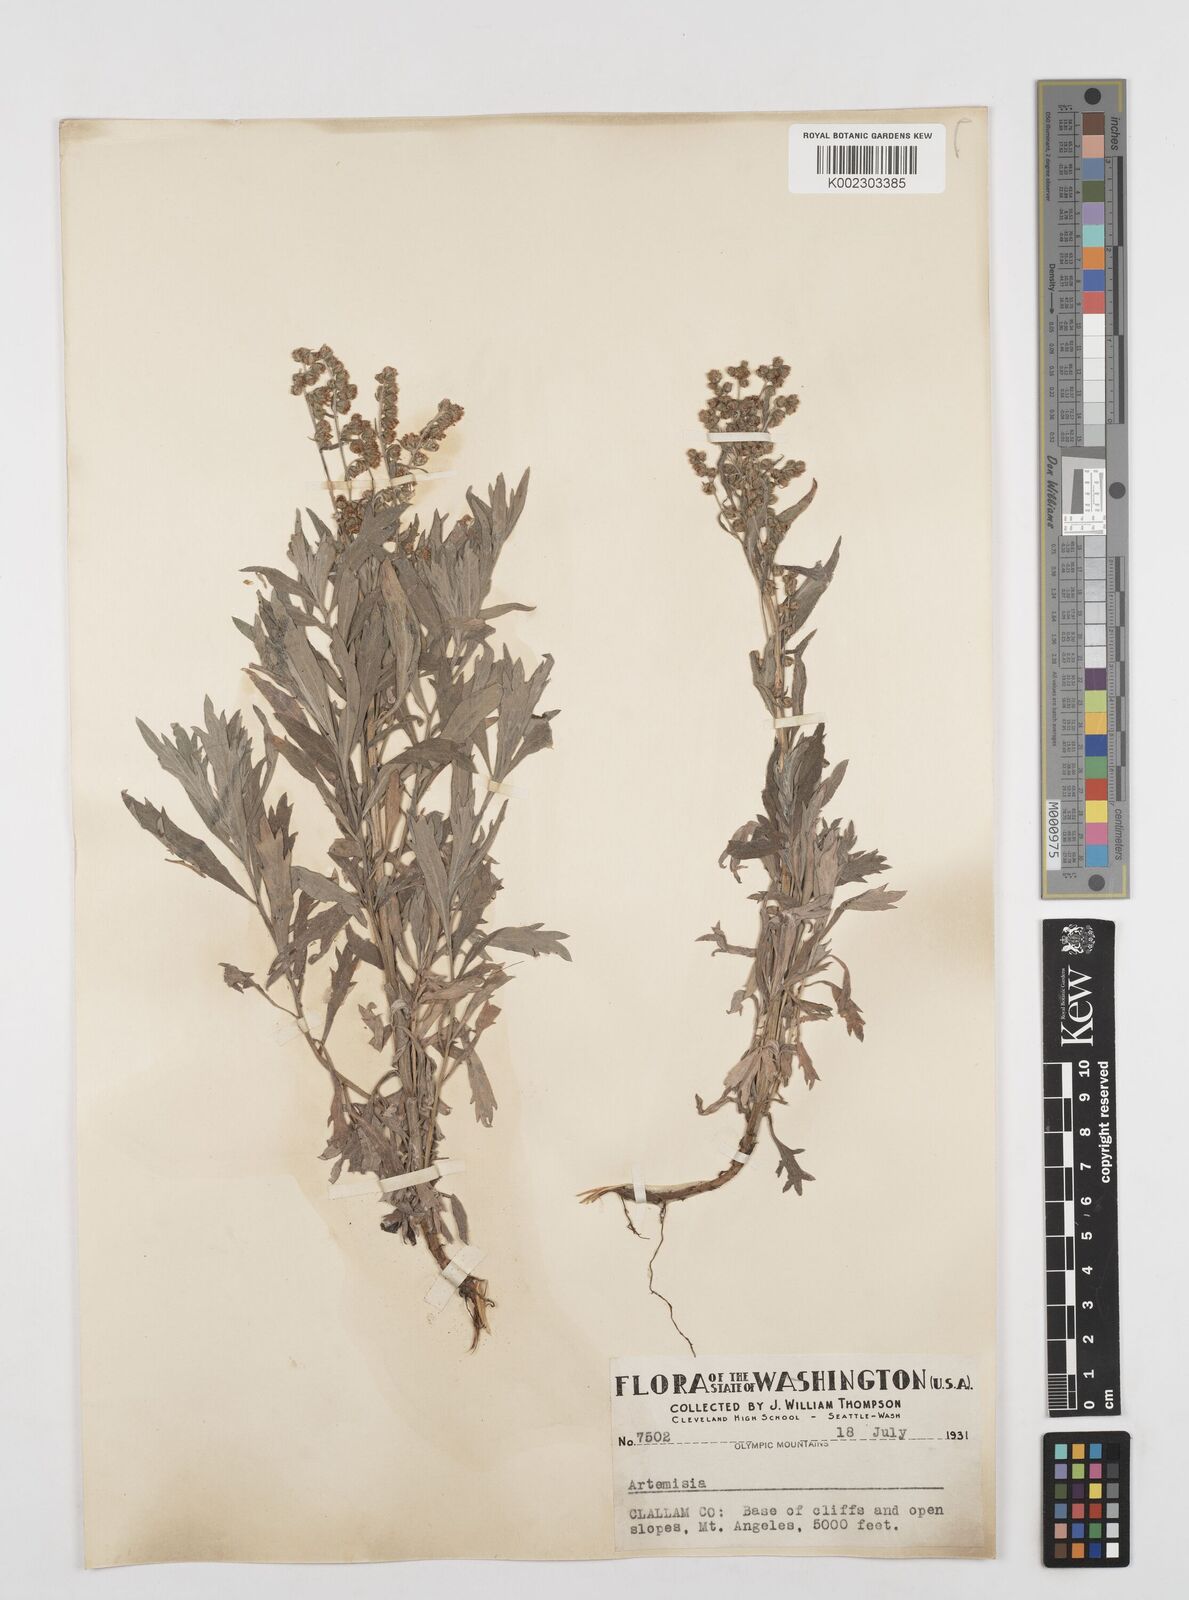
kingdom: Plantae
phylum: Tracheophyta
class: Magnoliopsida
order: Asterales
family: Asteraceae
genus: Artemisia
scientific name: Artemisia
